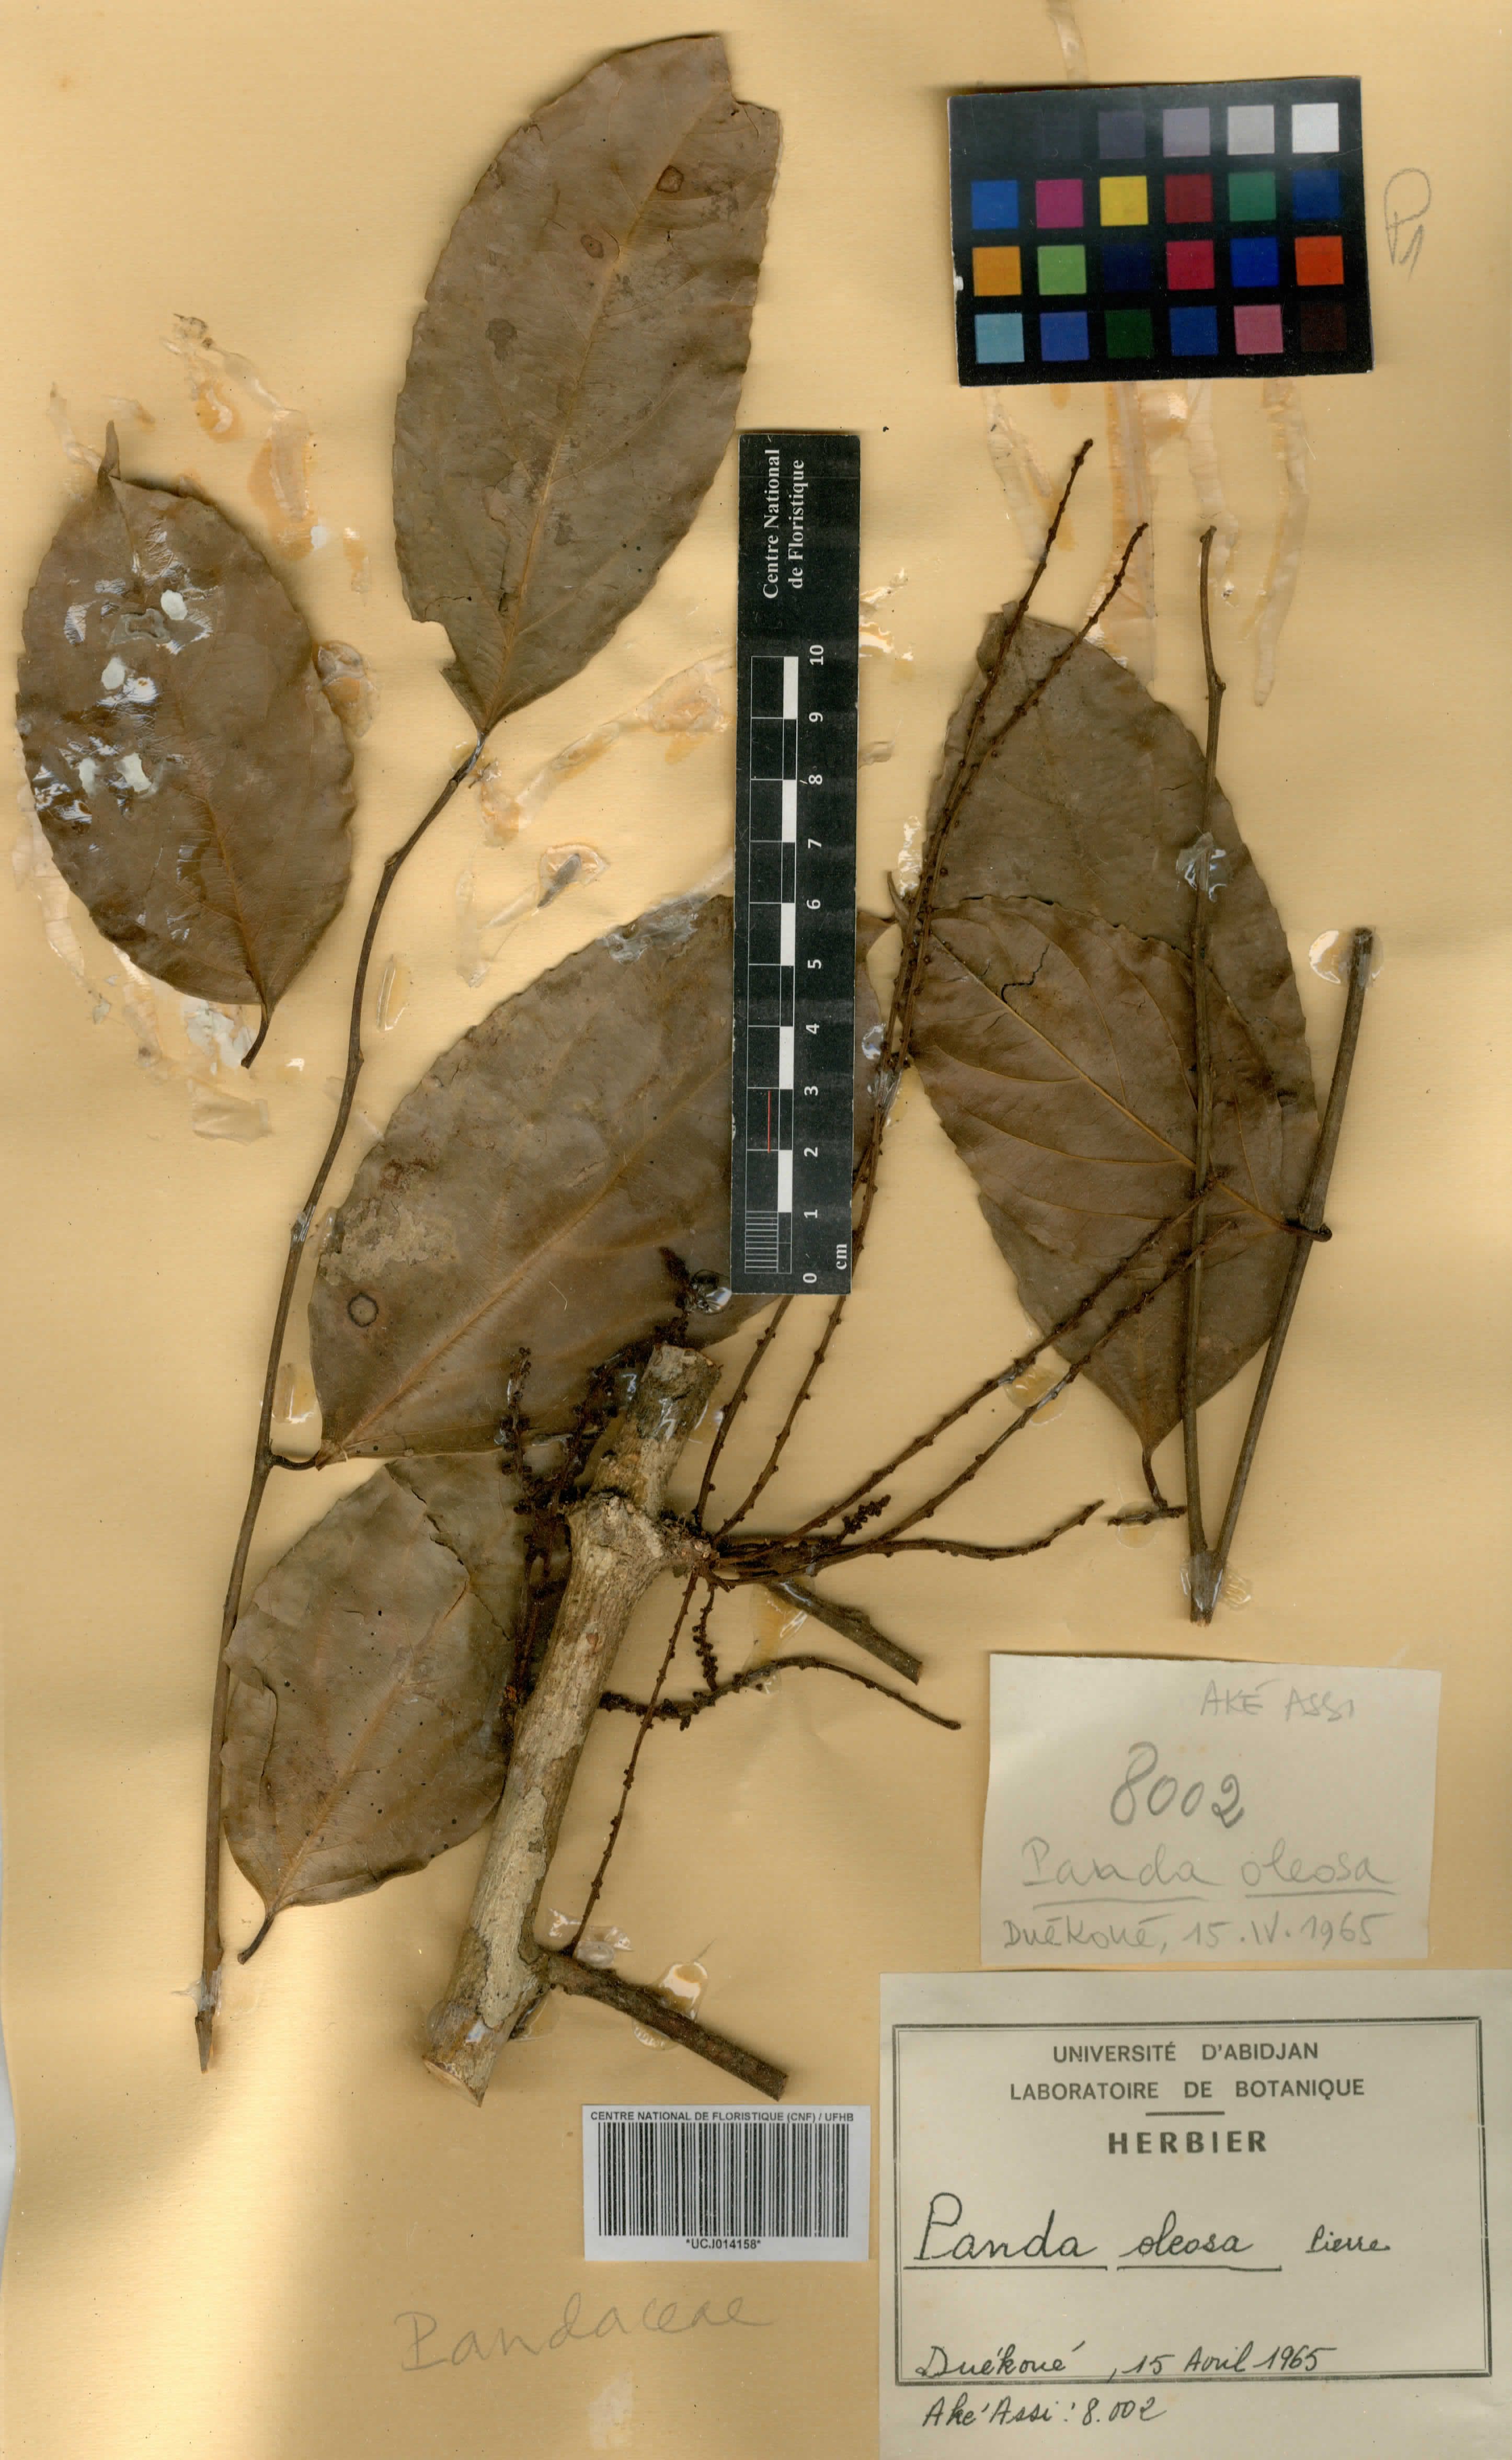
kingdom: Plantae
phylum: Tracheophyta
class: Magnoliopsida
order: Malpighiales
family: Pandaceae
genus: Panda
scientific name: Panda oleosa
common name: Panda
